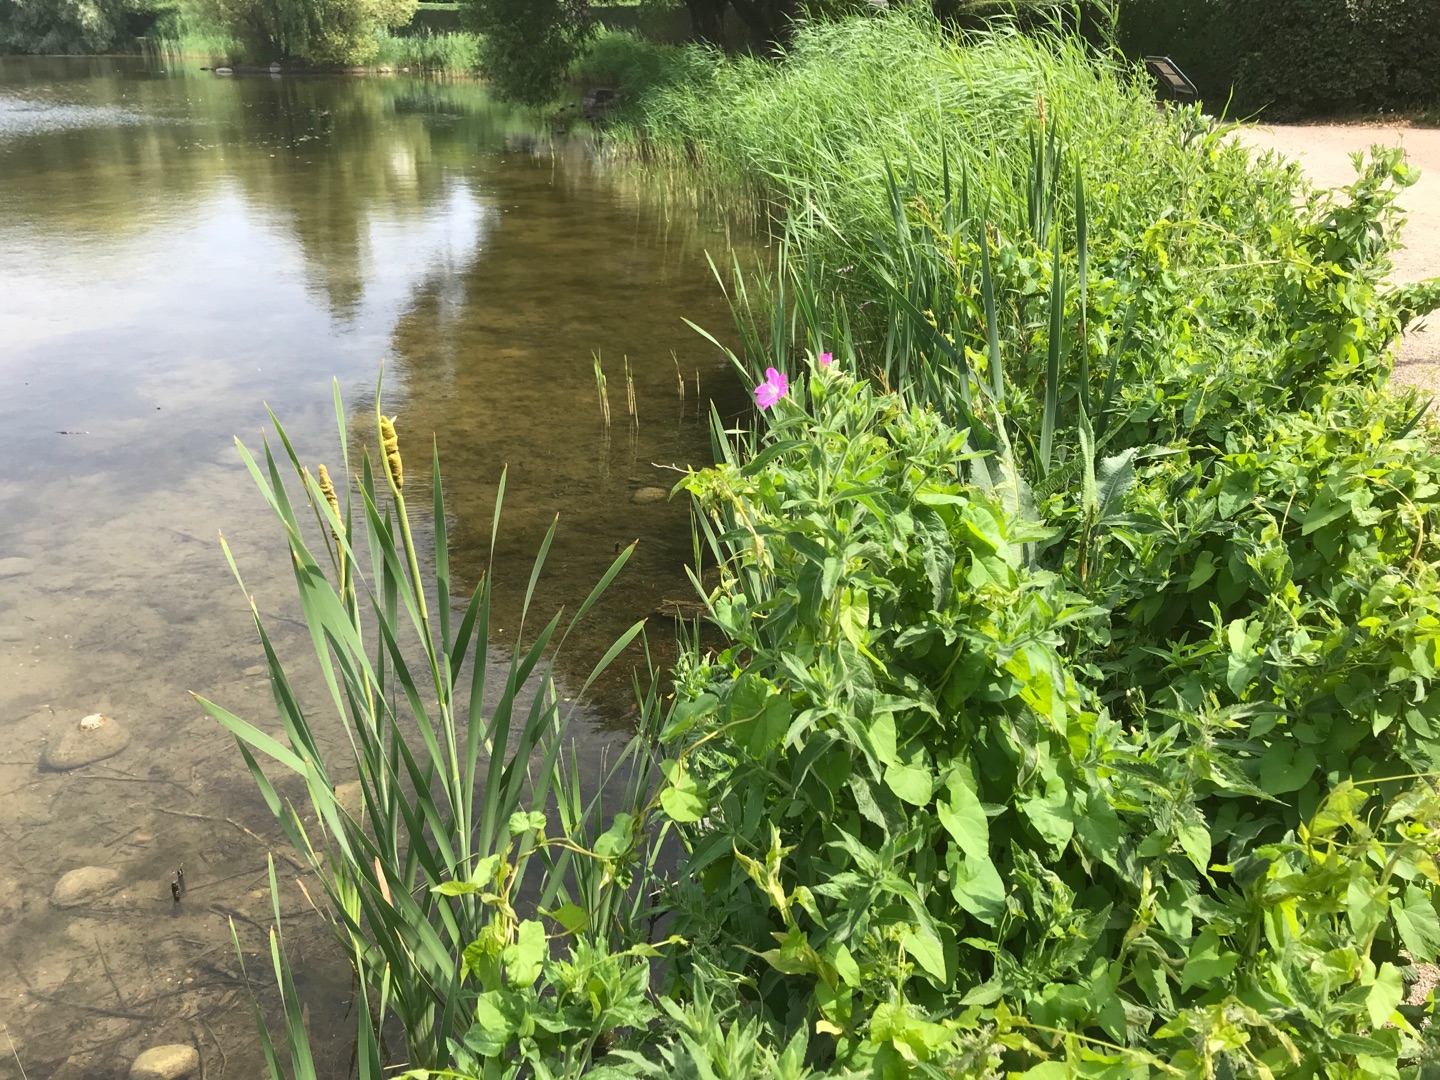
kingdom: Plantae
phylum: Tracheophyta
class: Magnoliopsida
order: Myrtales
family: Onagraceae
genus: Epilobium
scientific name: Epilobium hirsutum
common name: Lådden dueurt
